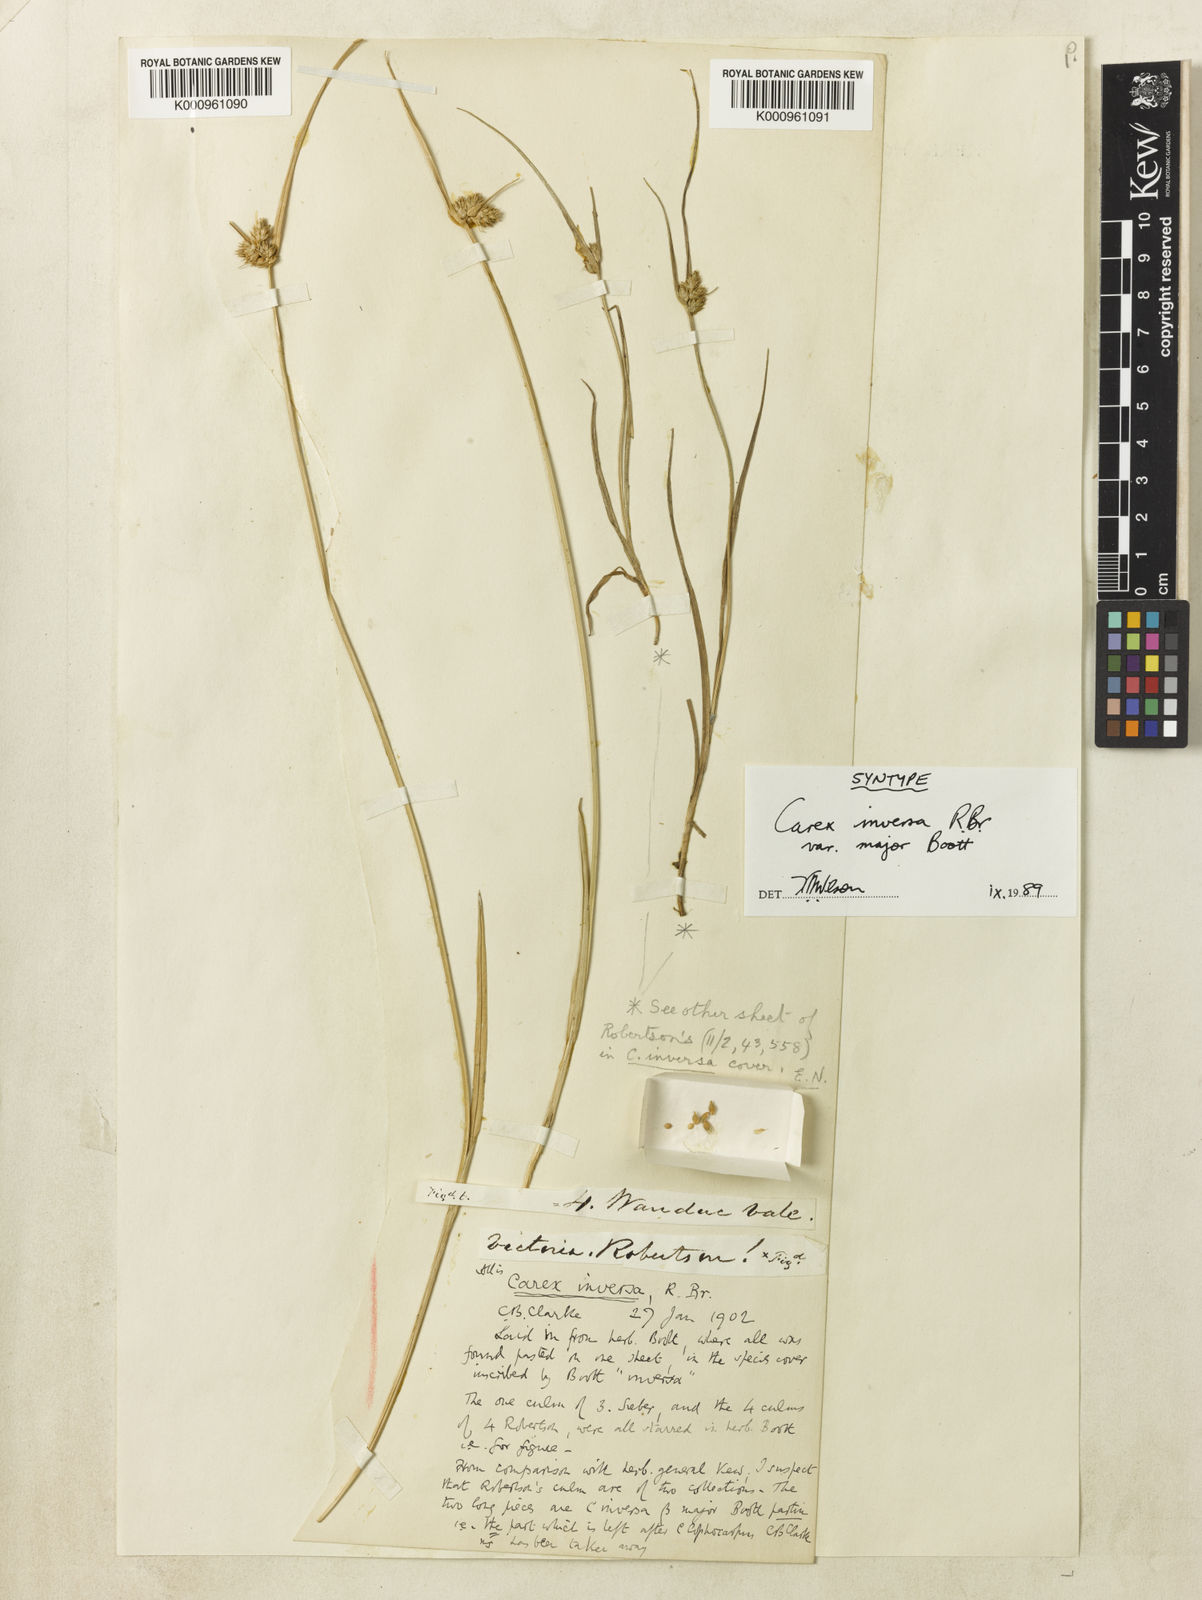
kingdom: Plantae
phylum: Tracheophyta
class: Liliopsida
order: Poales
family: Cyperaceae
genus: Carex
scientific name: Carex inversa
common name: Knob sedge
